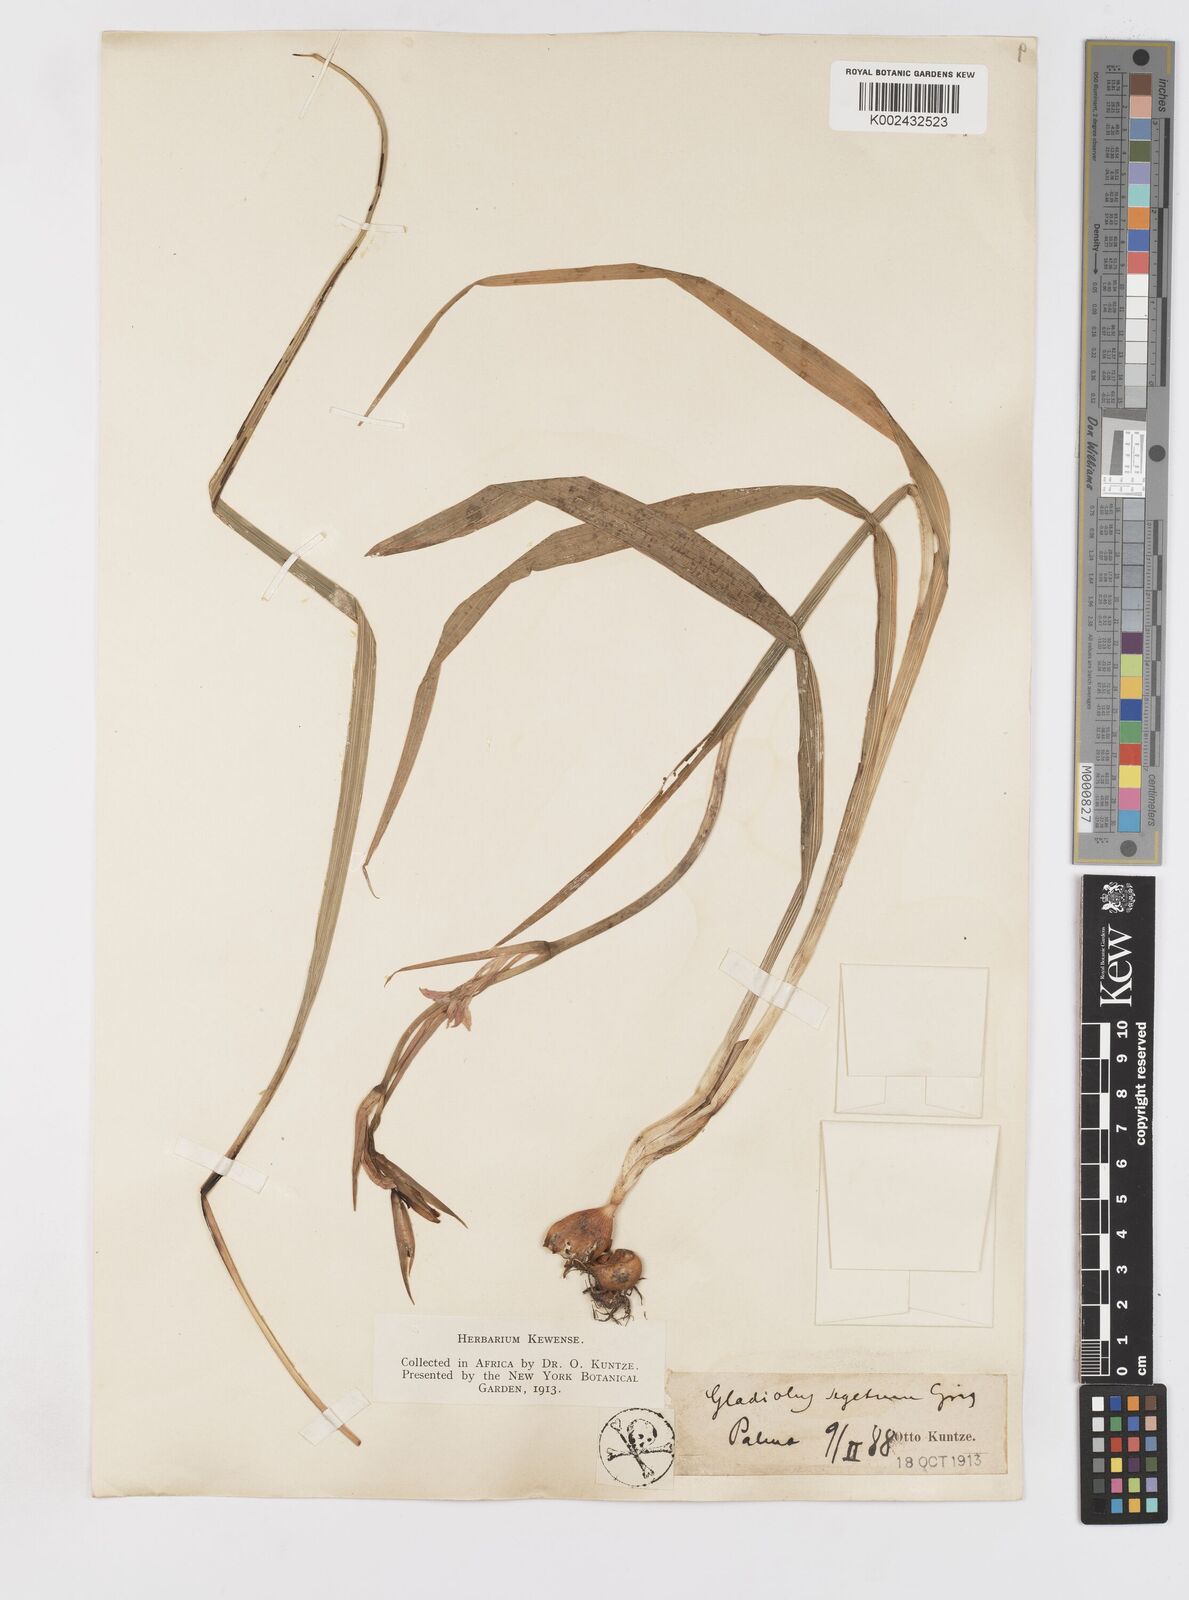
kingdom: Plantae
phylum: Tracheophyta
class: Liliopsida
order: Asparagales
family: Iridaceae
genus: Gladiolus
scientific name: Gladiolus communis
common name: Eastern gladiolus
